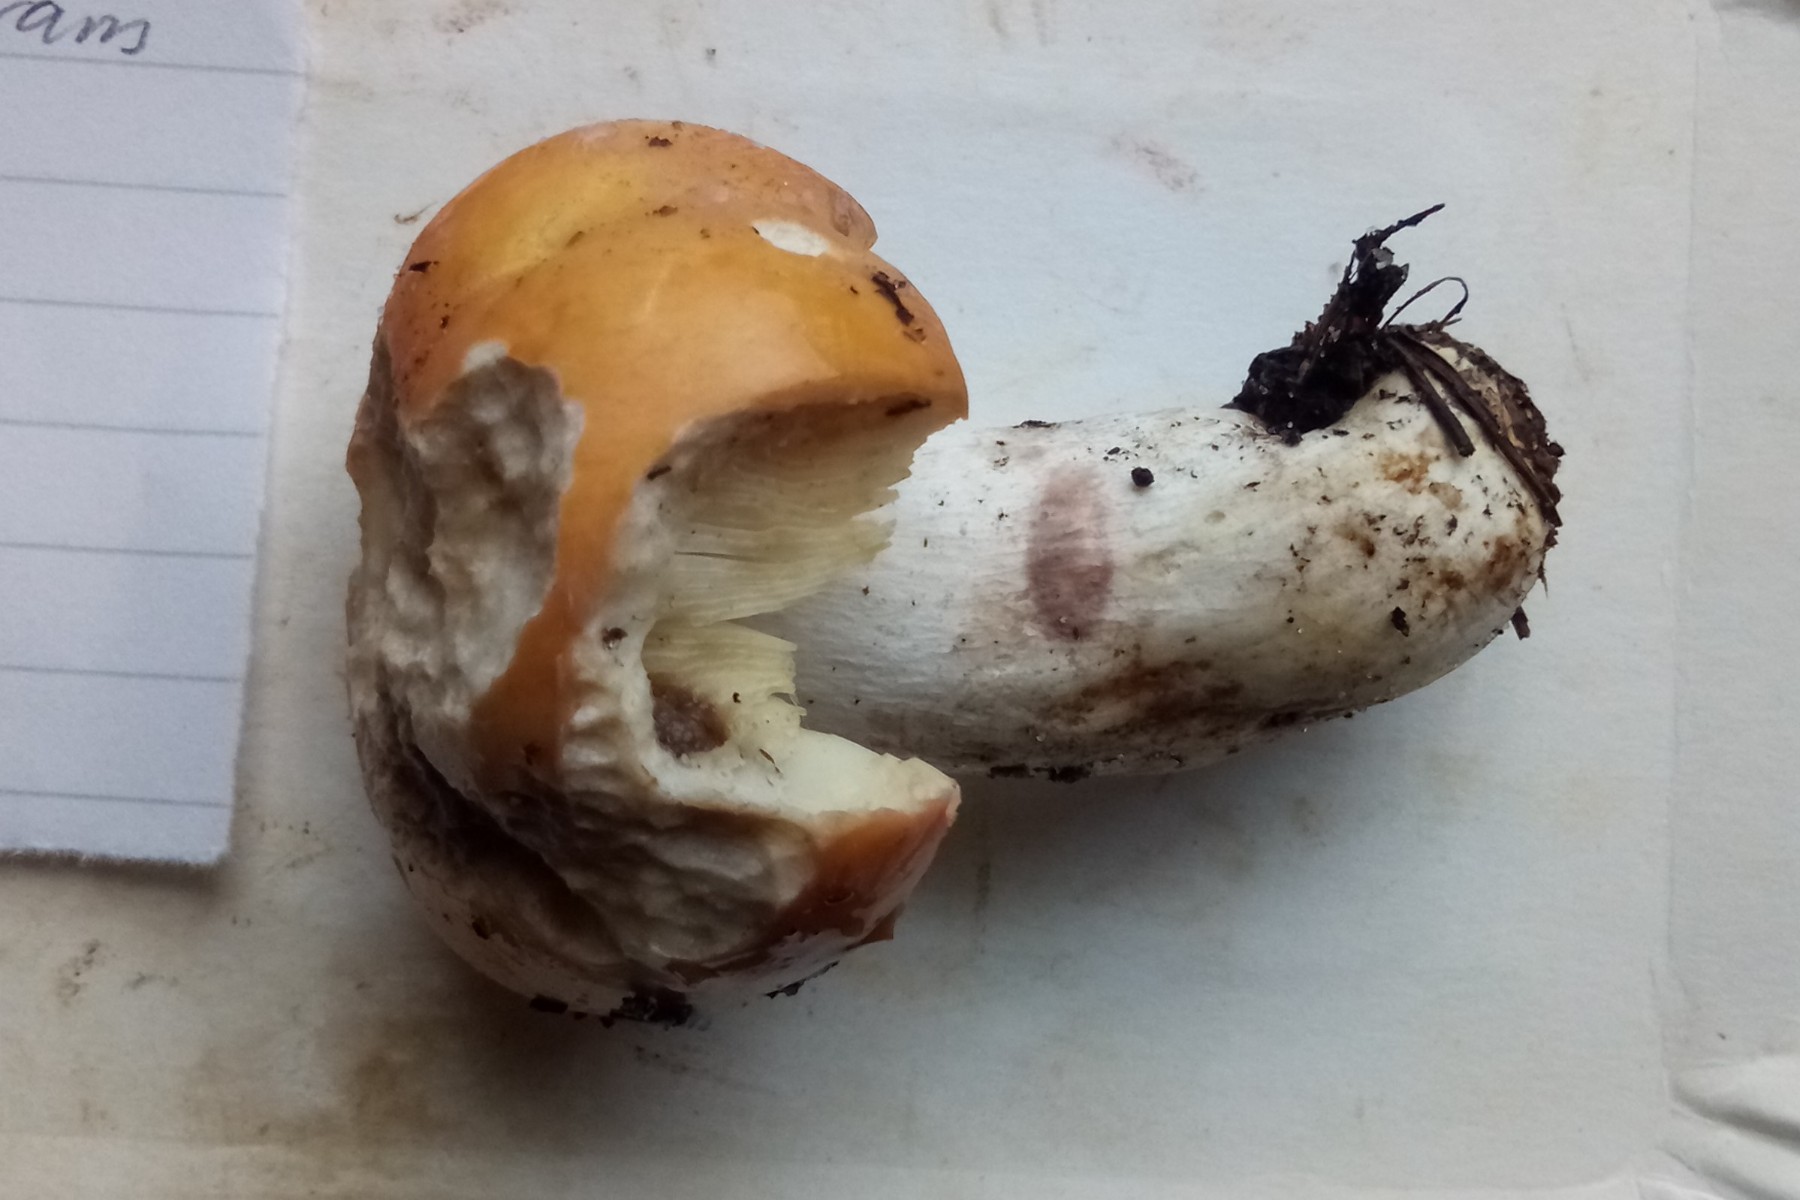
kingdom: Fungi
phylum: Basidiomycota
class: Agaricomycetes
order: Russulales
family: Russulaceae
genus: Russula
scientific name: Russula decolorans
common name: afblegende skørhat
